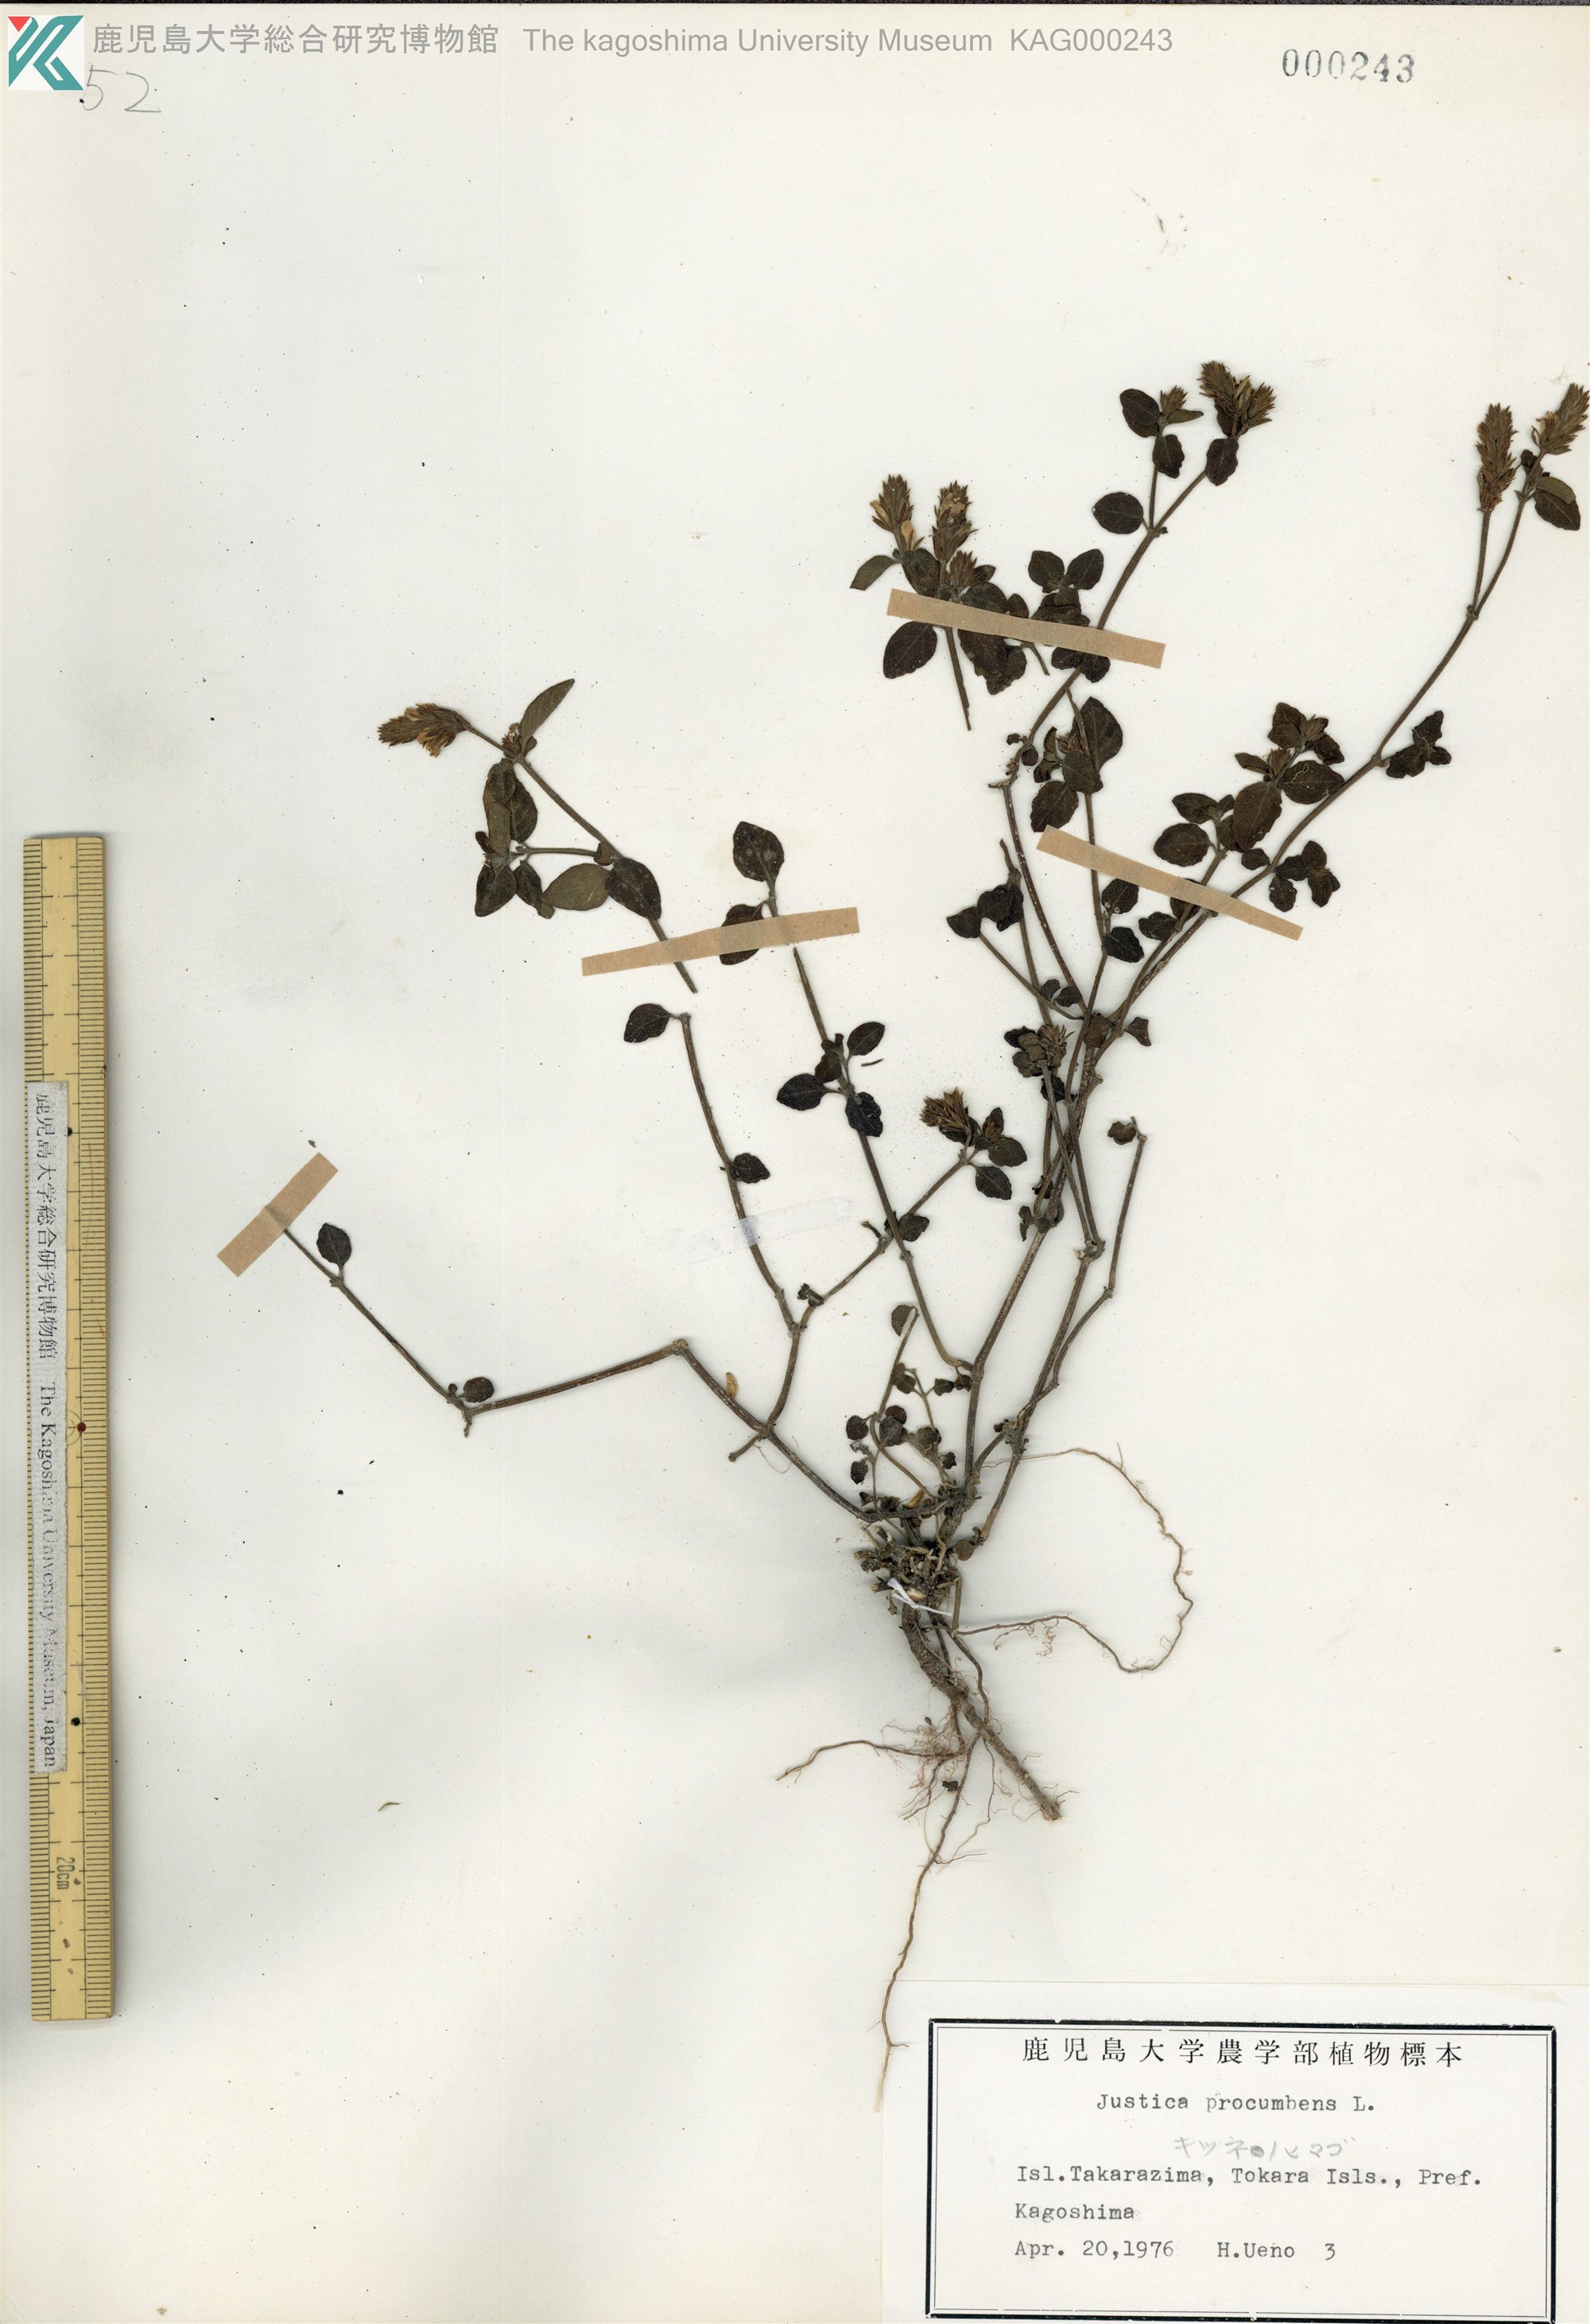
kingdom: Plantae
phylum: Tracheophyta
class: Magnoliopsida
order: Lamiales
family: Acanthaceae
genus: Rostellularia
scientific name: Rostellularia procumbens
